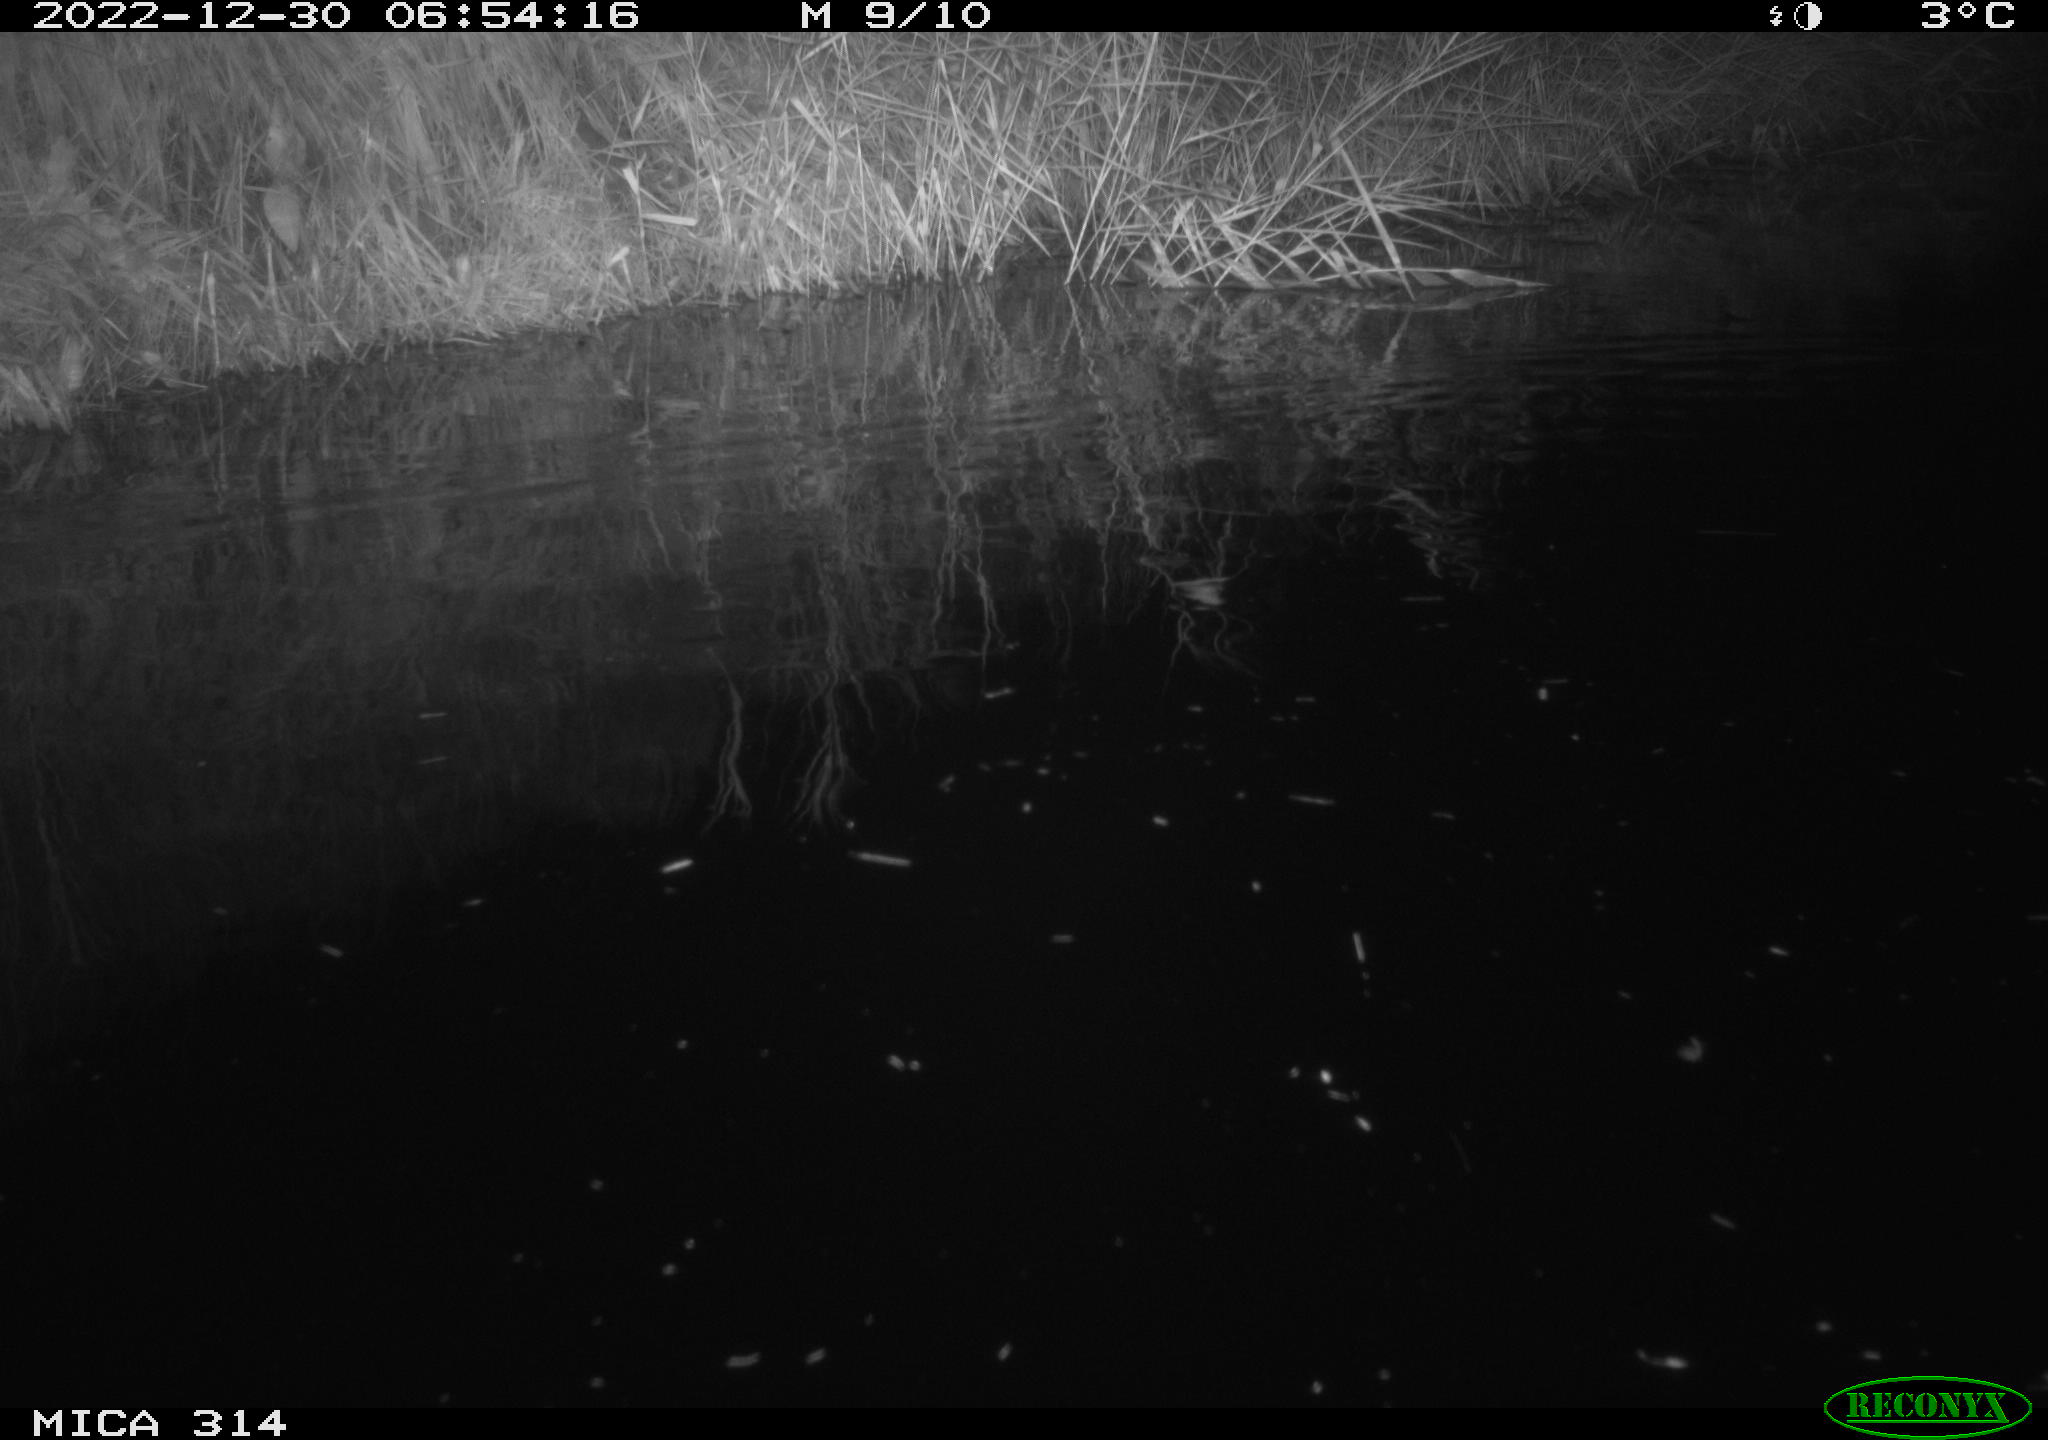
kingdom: Animalia
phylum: Chordata
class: Mammalia
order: Rodentia
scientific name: Rodentia
